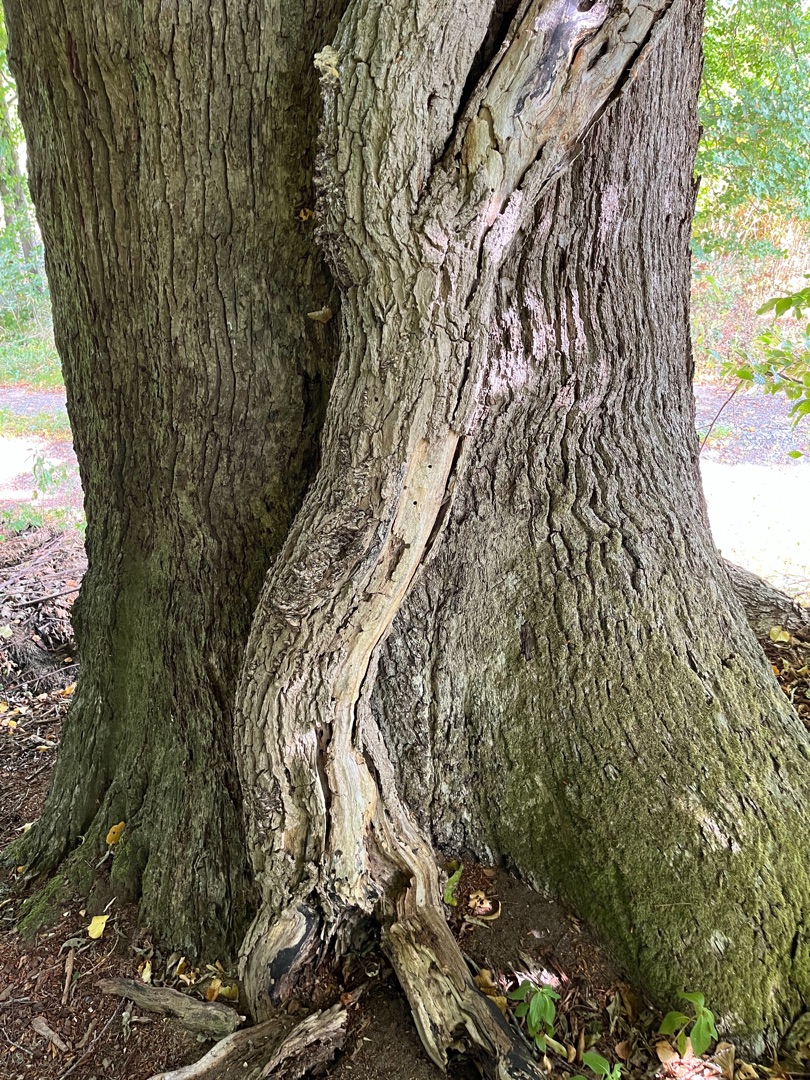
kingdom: Plantae
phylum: Tracheophyta
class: Magnoliopsida
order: Apiales
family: Araliaceae
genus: Hedera
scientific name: Hedera helix
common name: Vedbend
